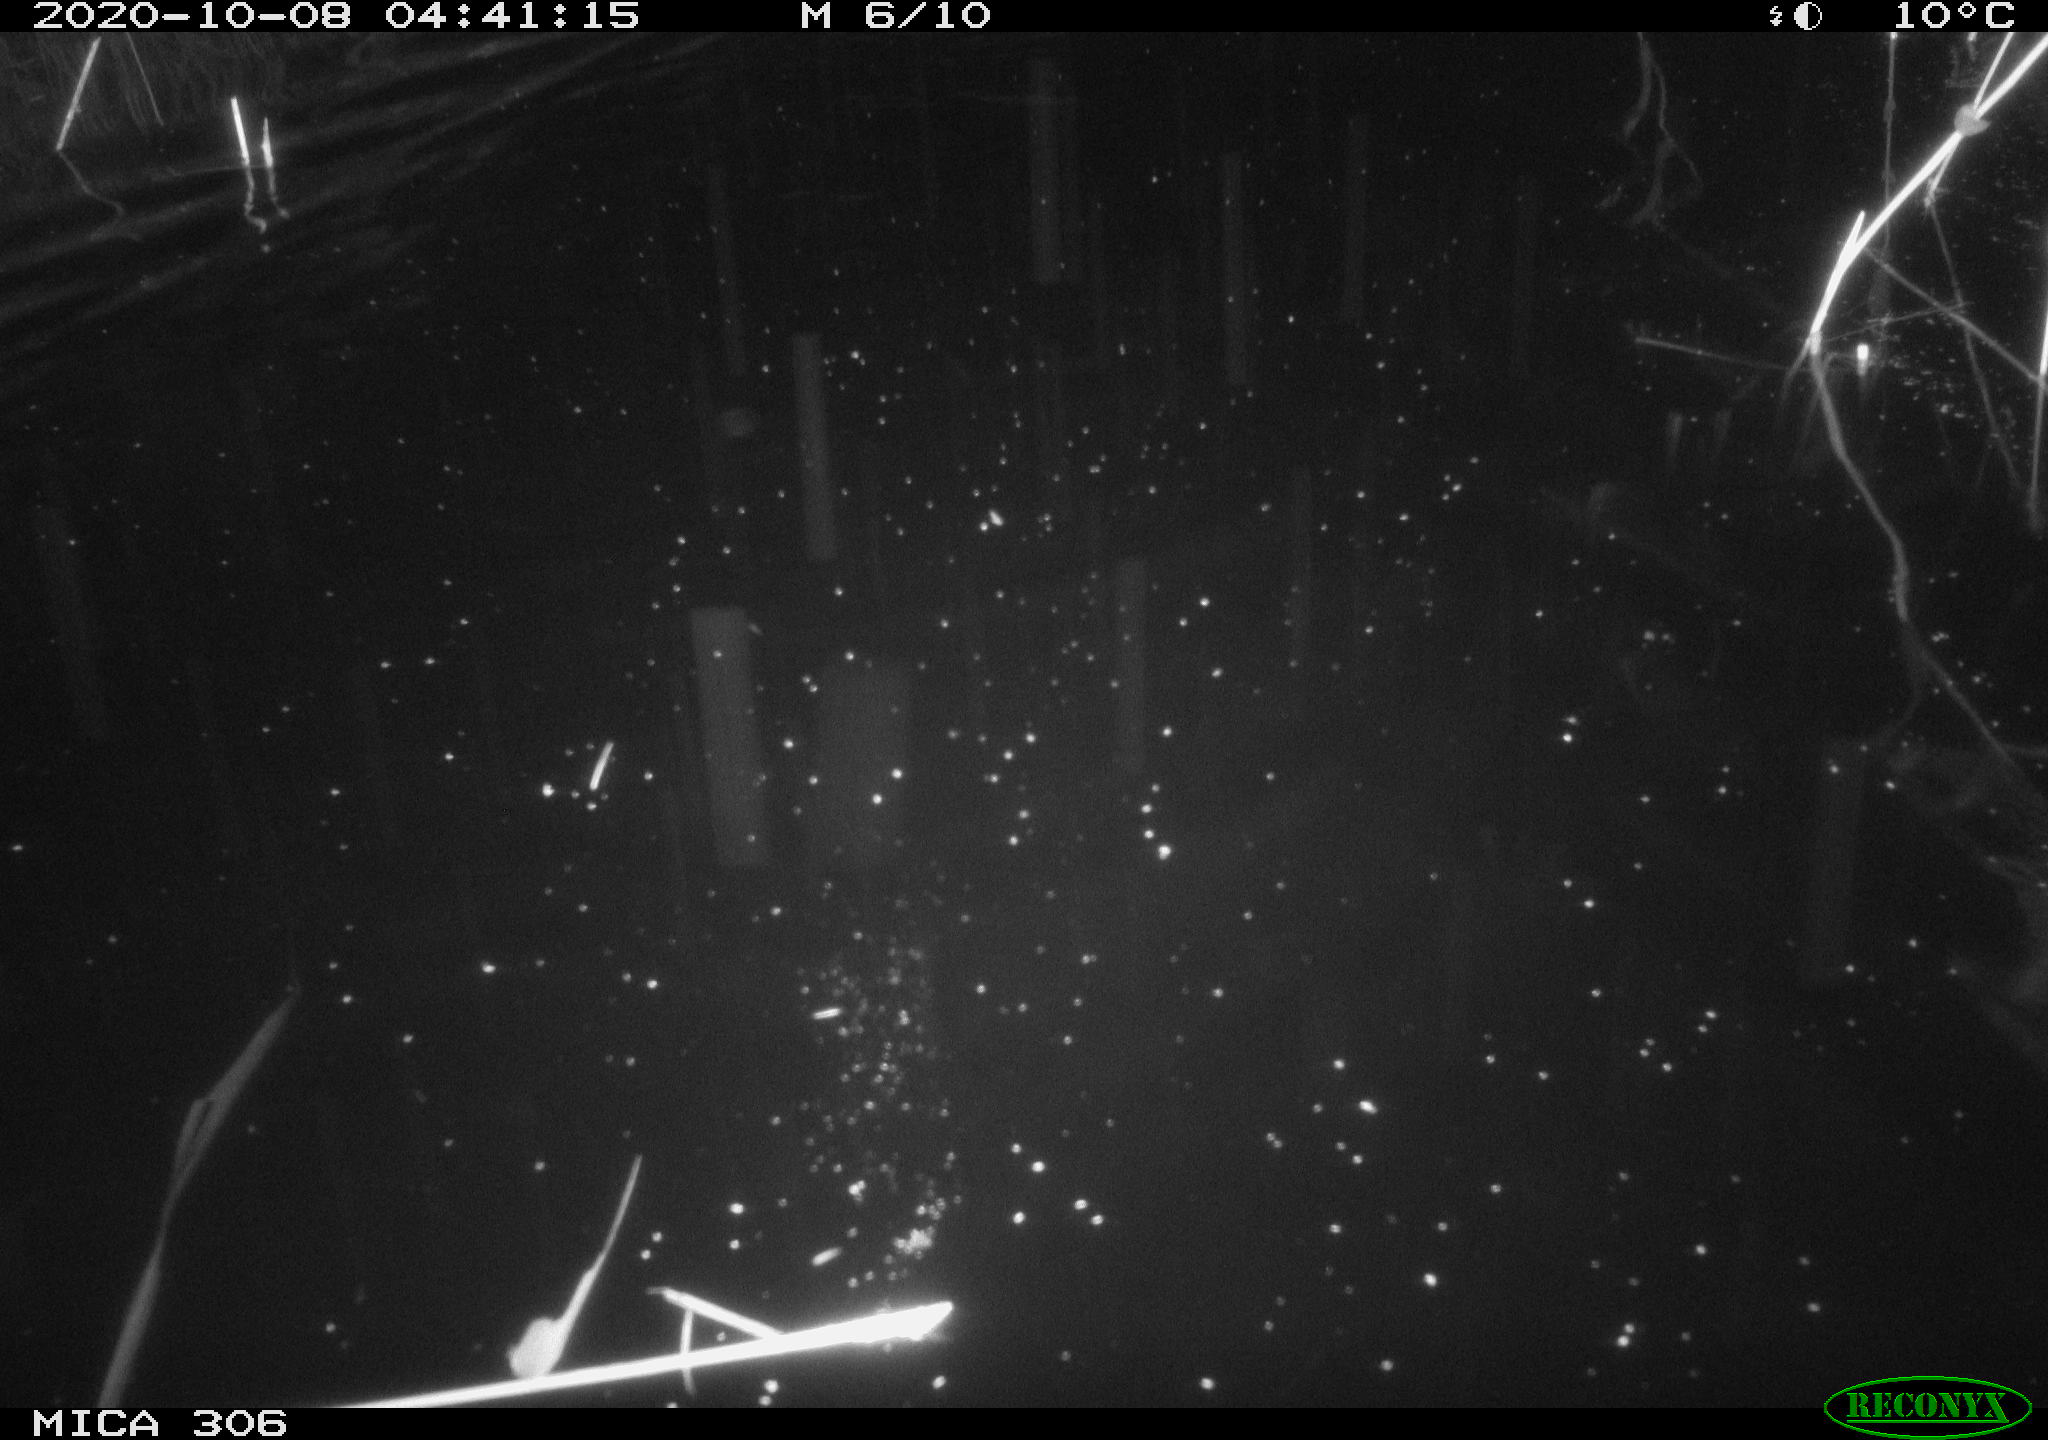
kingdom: Animalia
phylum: Chordata
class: Mammalia
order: Rodentia
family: Cricetidae
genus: Ondatra
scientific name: Ondatra zibethicus
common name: Muskrat
